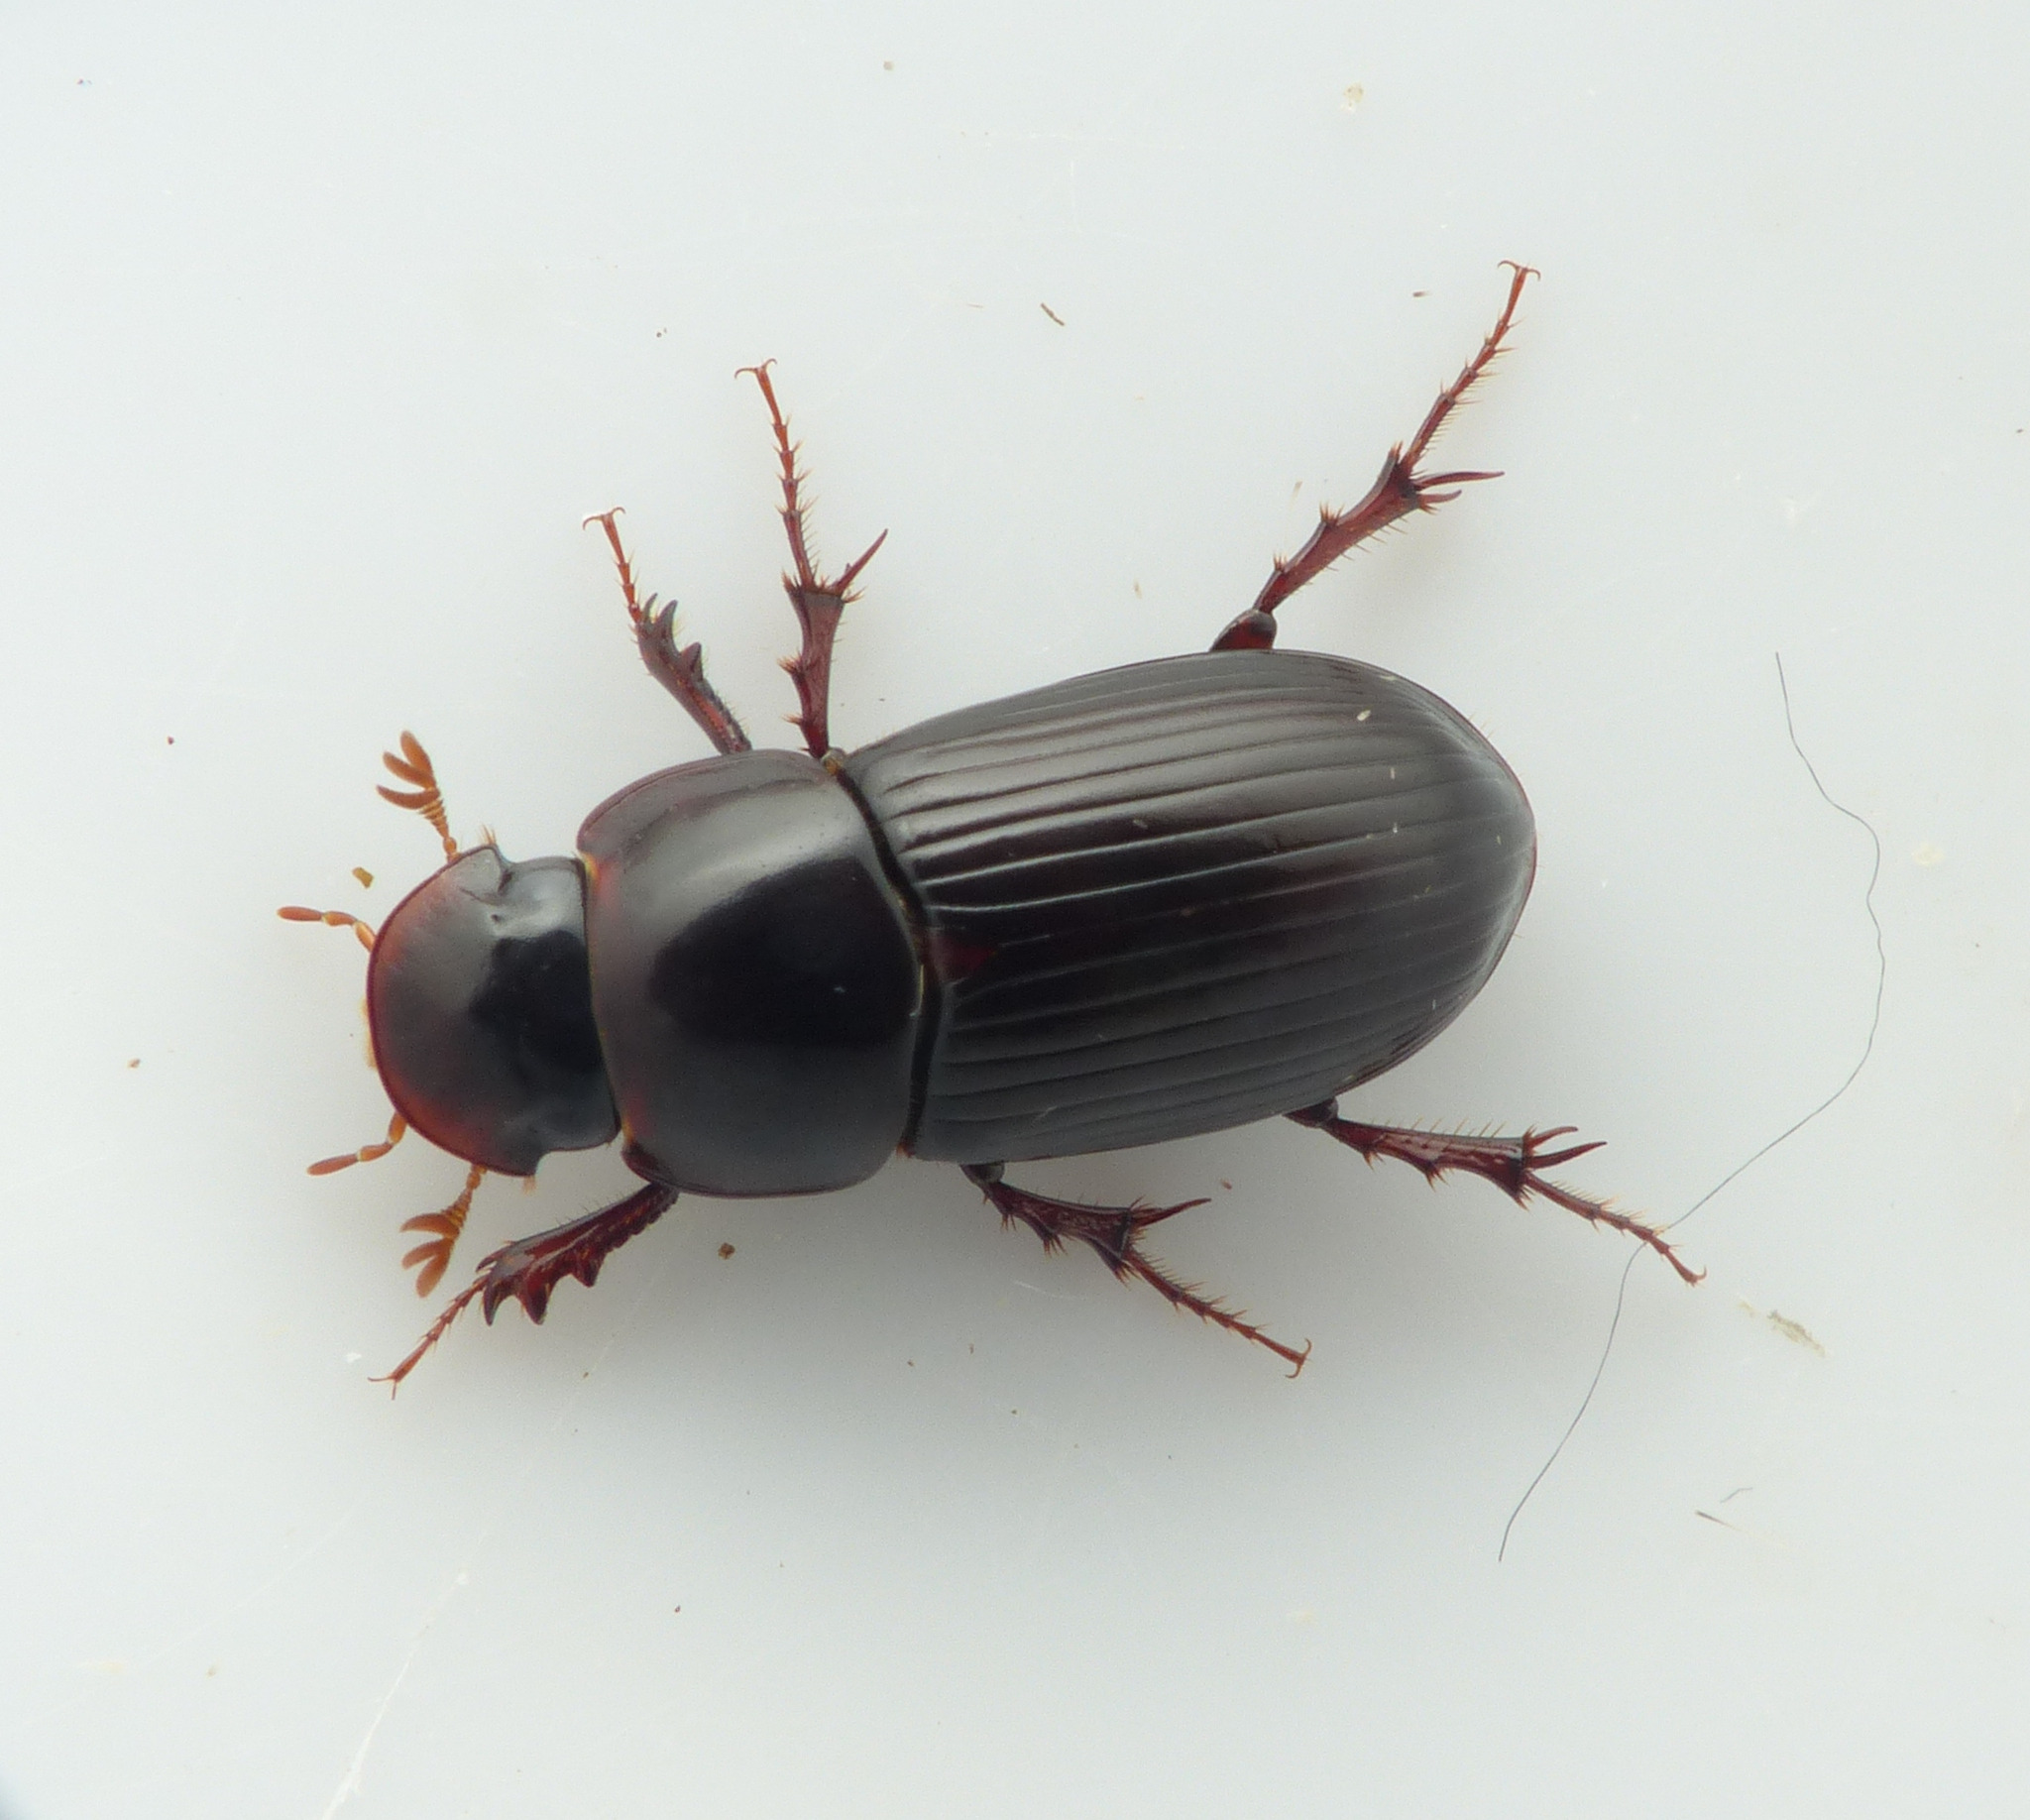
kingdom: Animalia
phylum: Arthropoda
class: Insecta
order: Coleoptera
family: Scarabaeidae
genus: Acrossus
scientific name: Acrossus rufipes
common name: Rødbenet møgbille
